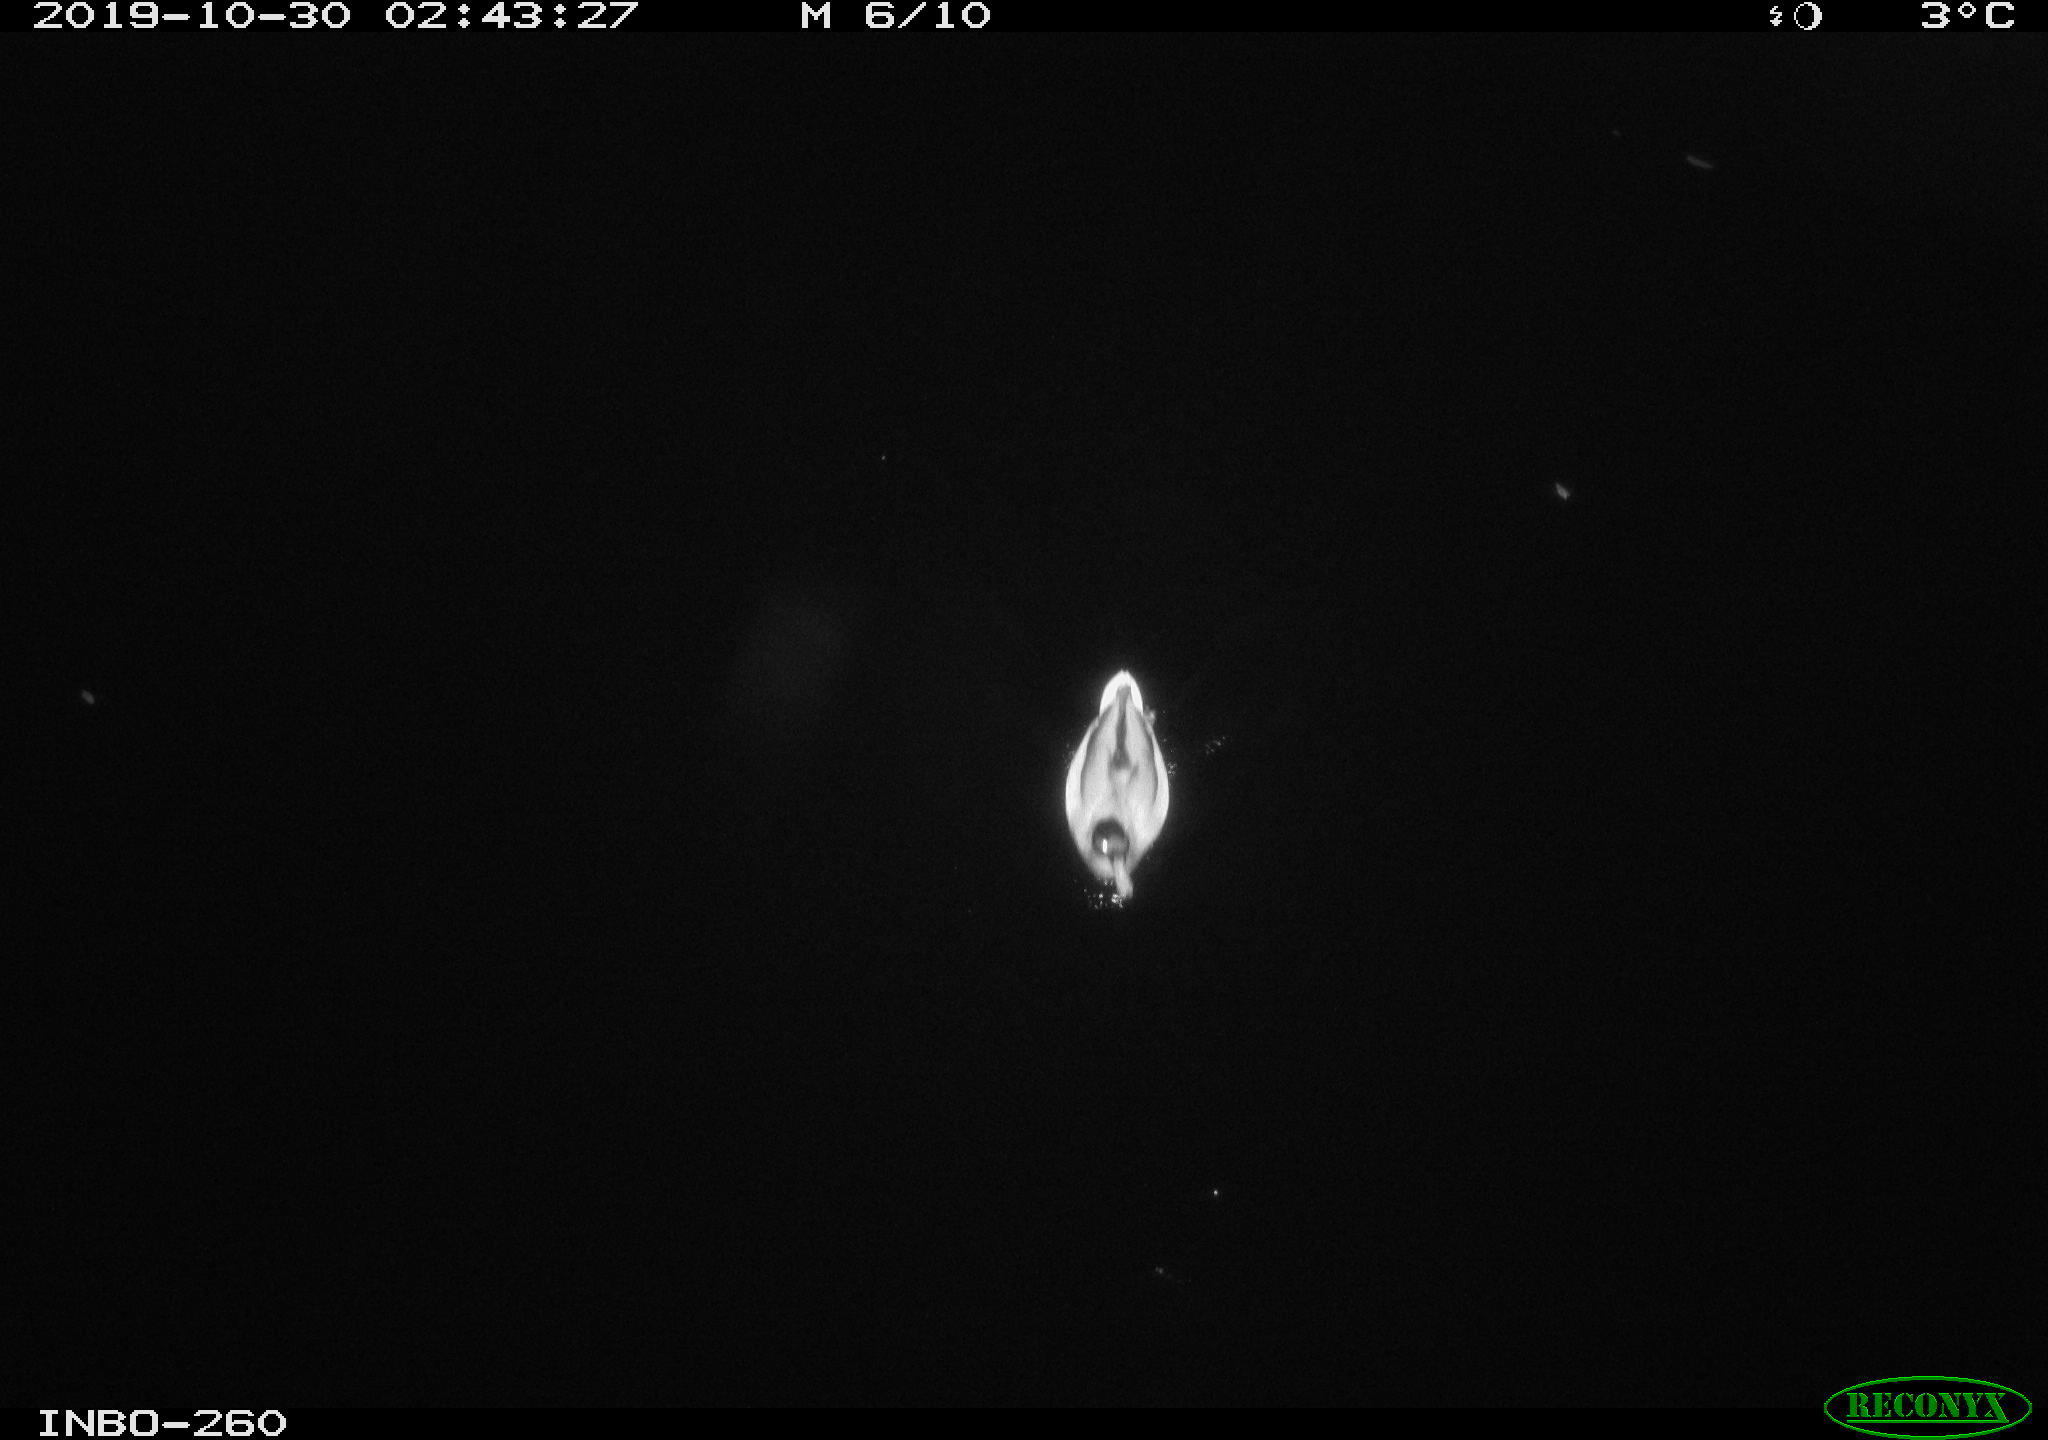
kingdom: Animalia
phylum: Chordata
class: Aves
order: Anseriformes
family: Anatidae
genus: Anas
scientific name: Anas platyrhynchos
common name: Mallard
